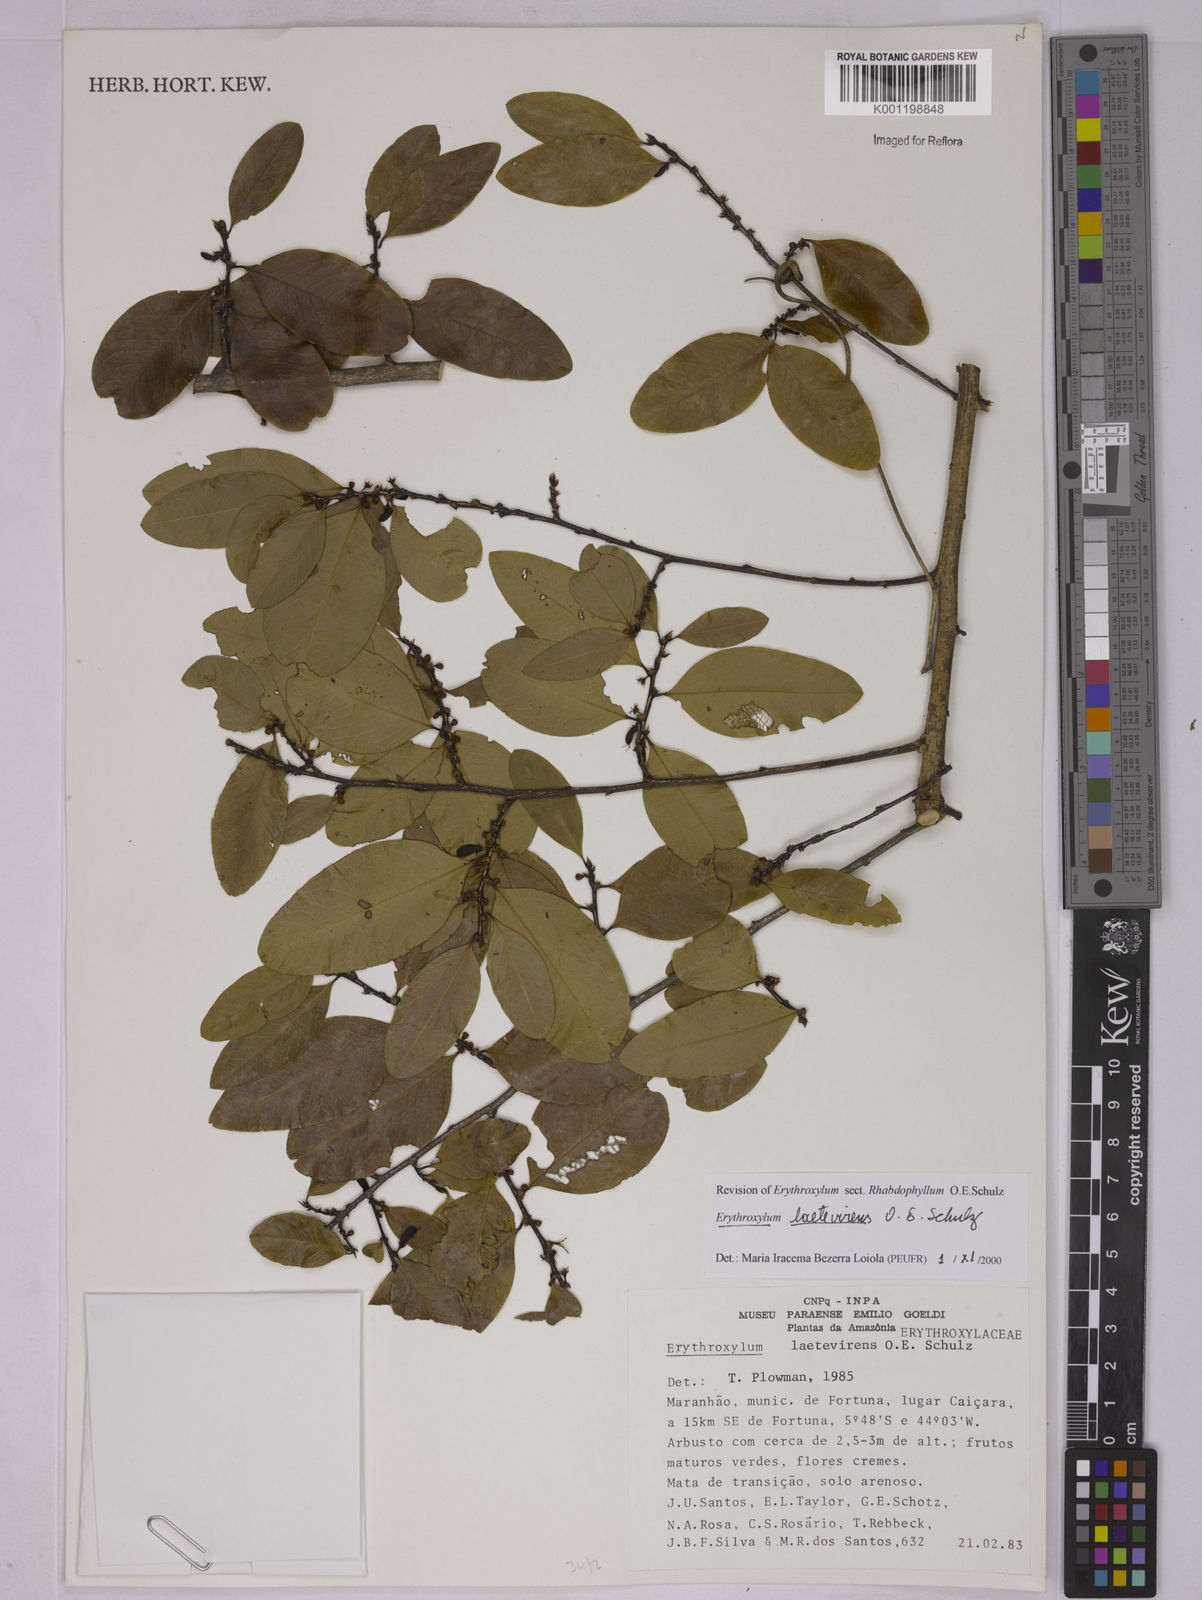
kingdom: Plantae
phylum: Tracheophyta
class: Magnoliopsida
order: Malpighiales
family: Erythroxylaceae
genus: Erythroxylum
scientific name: Erythroxylum laetevirens
